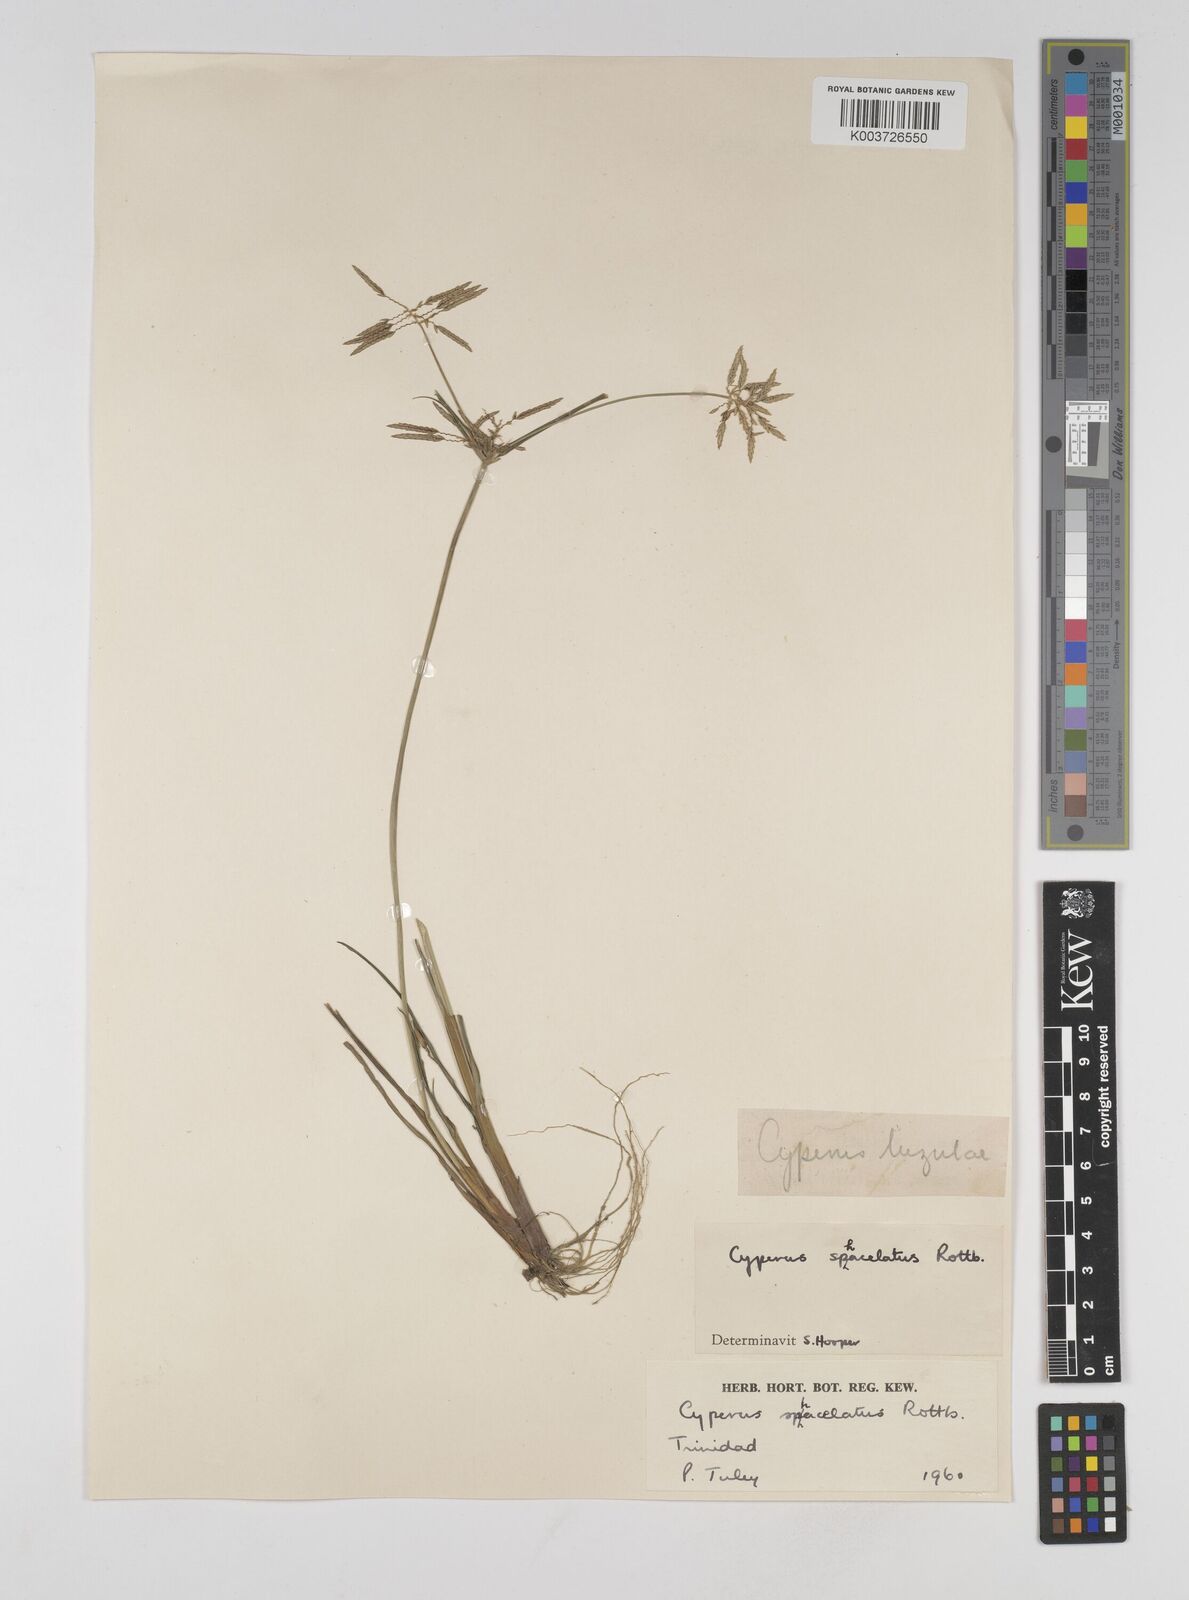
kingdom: Plantae
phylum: Tracheophyta
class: Liliopsida
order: Poales
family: Cyperaceae
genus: Cyperus
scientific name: Cyperus sphacelatus
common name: Roadside flatsedge
